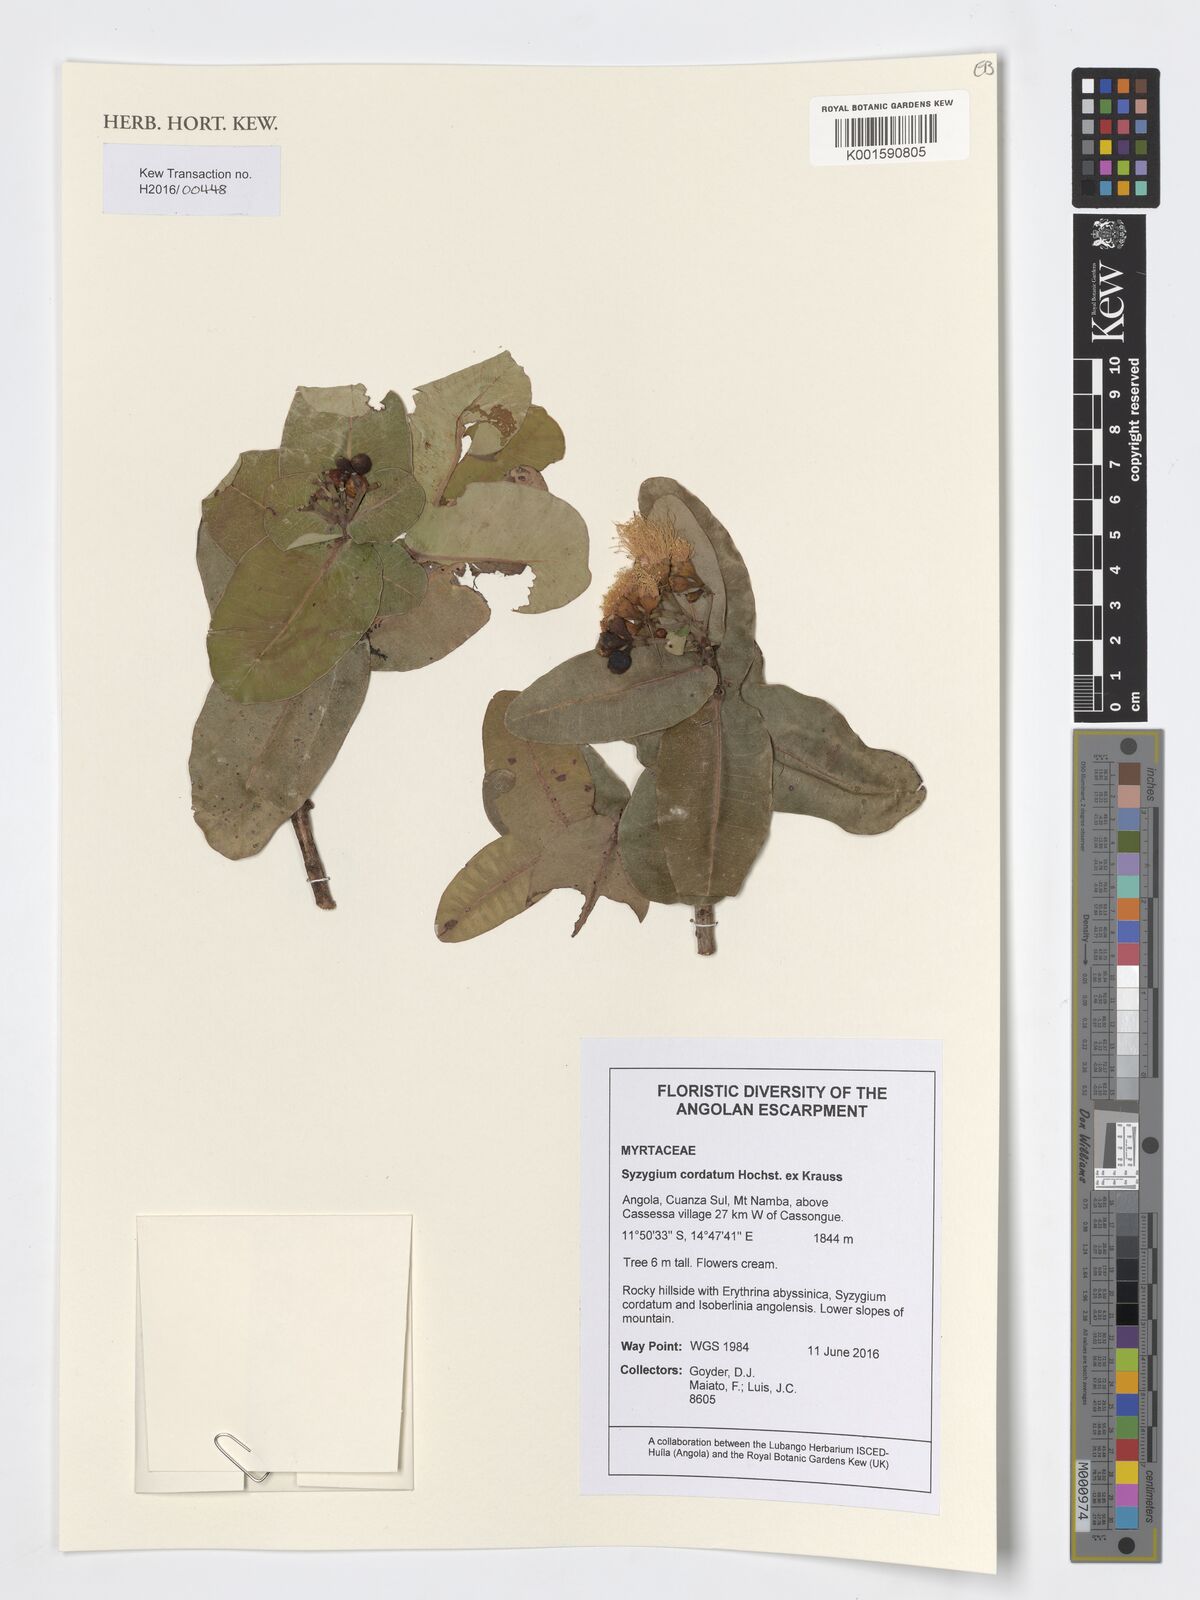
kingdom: Plantae
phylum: Tracheophyta
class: Magnoliopsida
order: Myrtales
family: Myrtaceae
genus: Syzygium
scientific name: Syzygium cordatum
